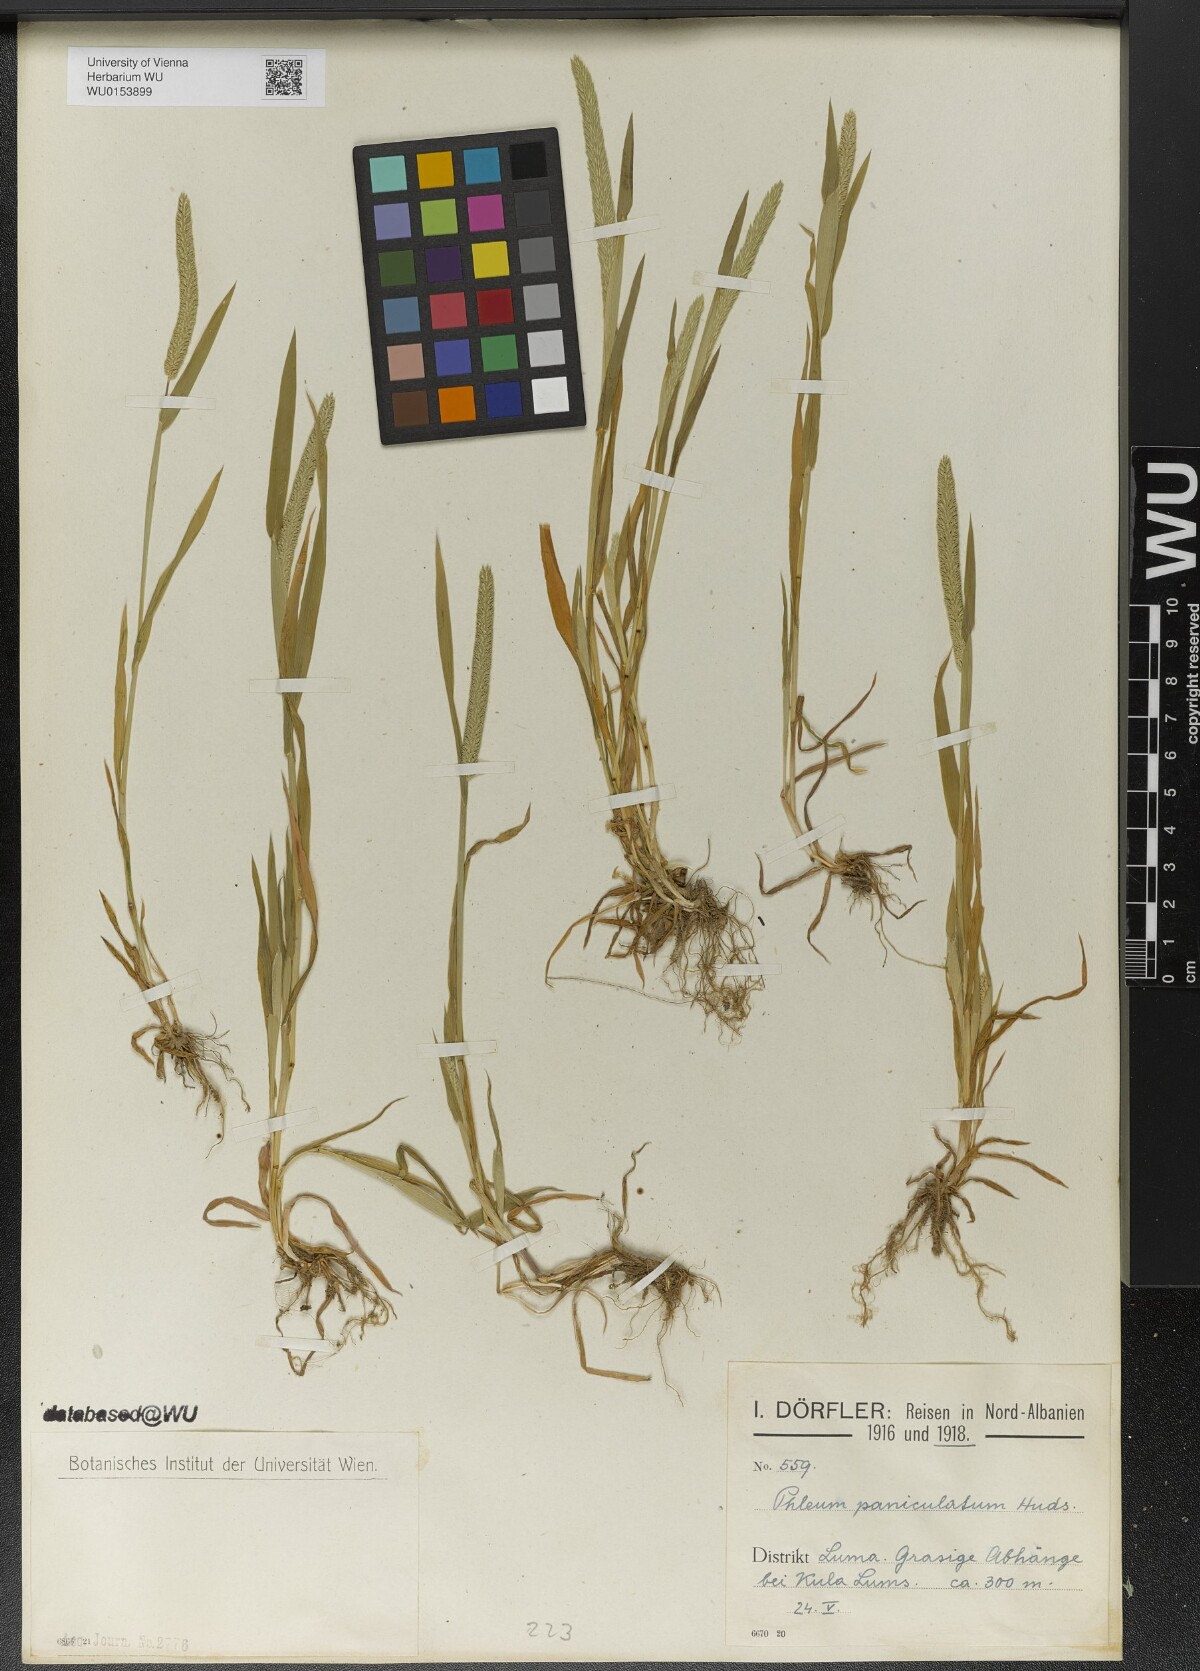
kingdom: Plantae
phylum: Tracheophyta
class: Liliopsida
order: Poales
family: Poaceae
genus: Phleum
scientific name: Phleum paniculatum
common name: British timothy
